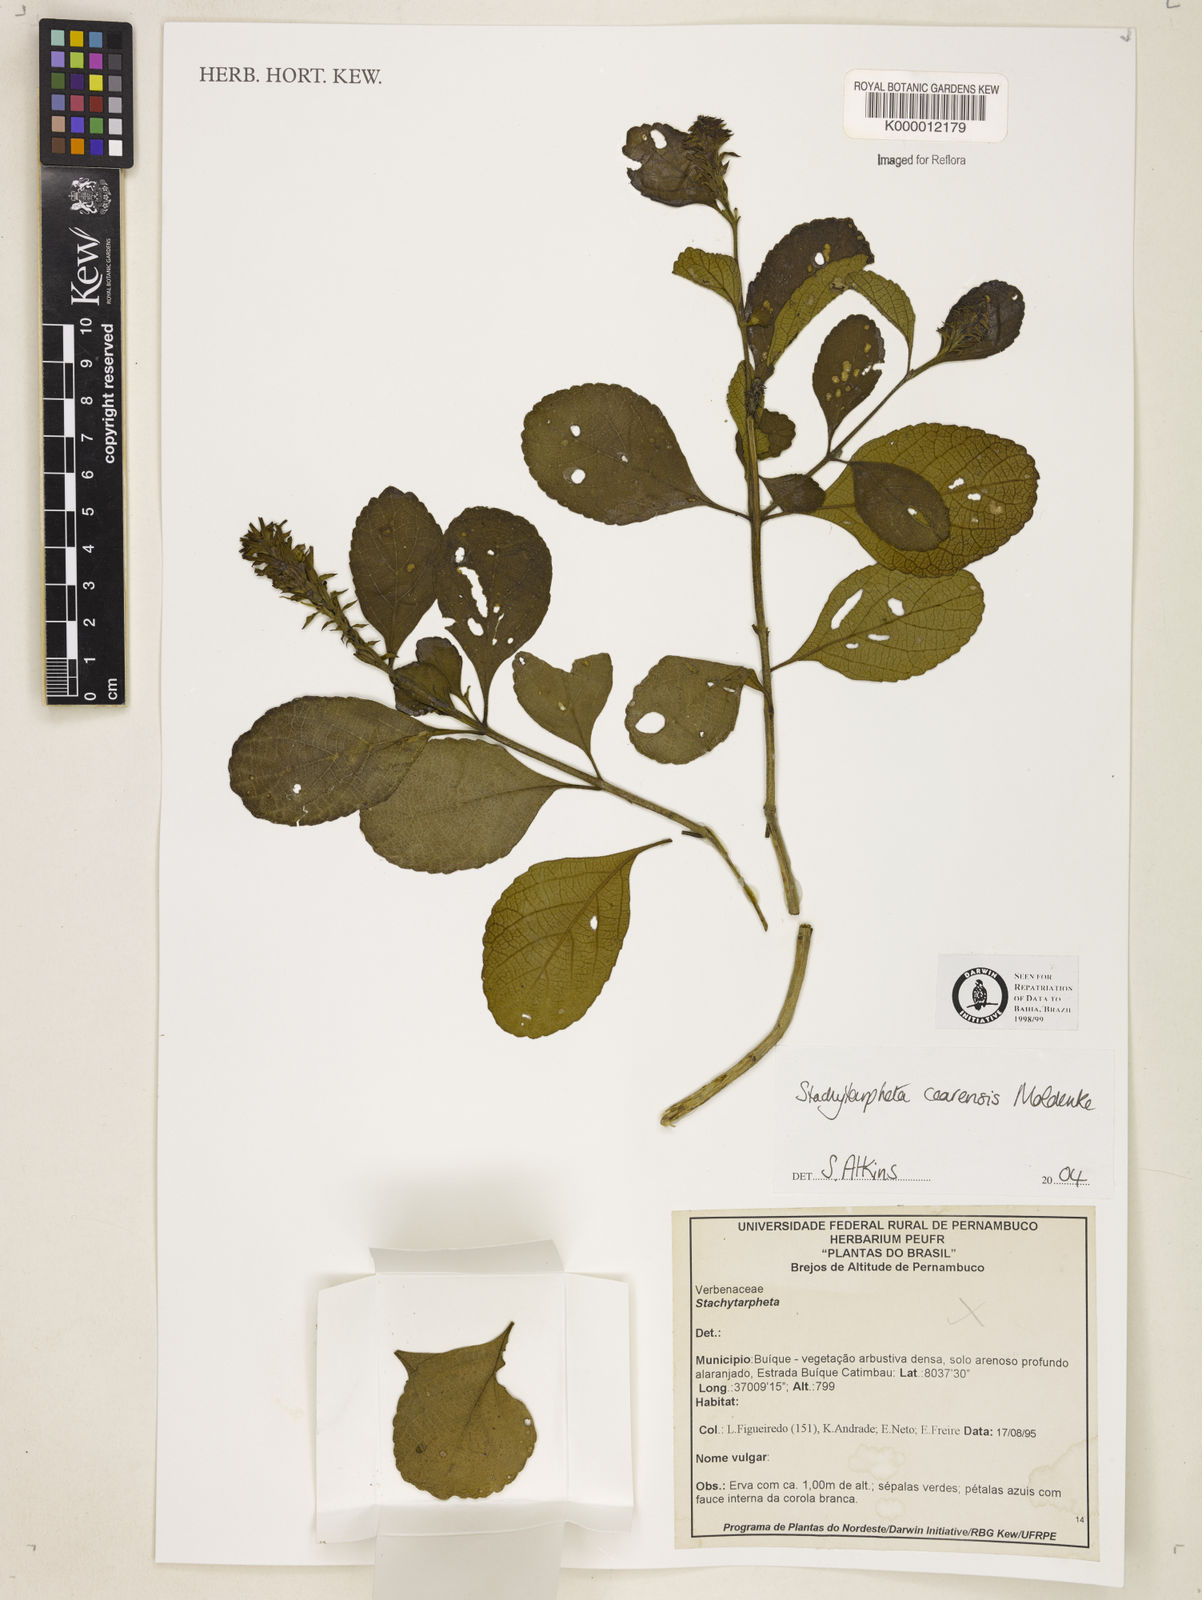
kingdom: Plantae
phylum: Tracheophyta
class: Magnoliopsida
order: Lamiales
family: Verbenaceae
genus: Stachytarpheta
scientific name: Stachytarpheta
